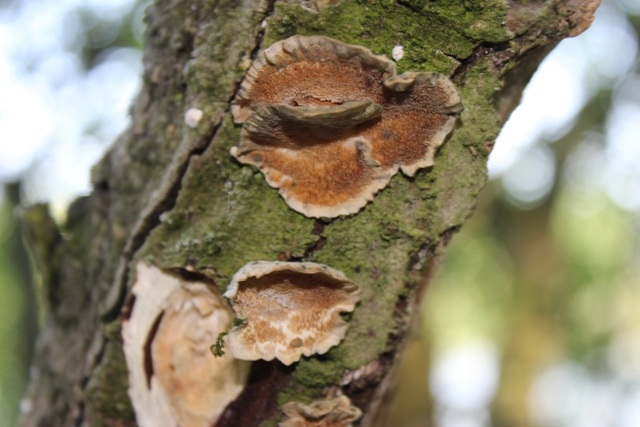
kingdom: Fungi
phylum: Basidiomycota
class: Agaricomycetes
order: Polyporales
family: Polyporaceae
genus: Trametes
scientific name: Trametes versicolor
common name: broget læderporesvamp
